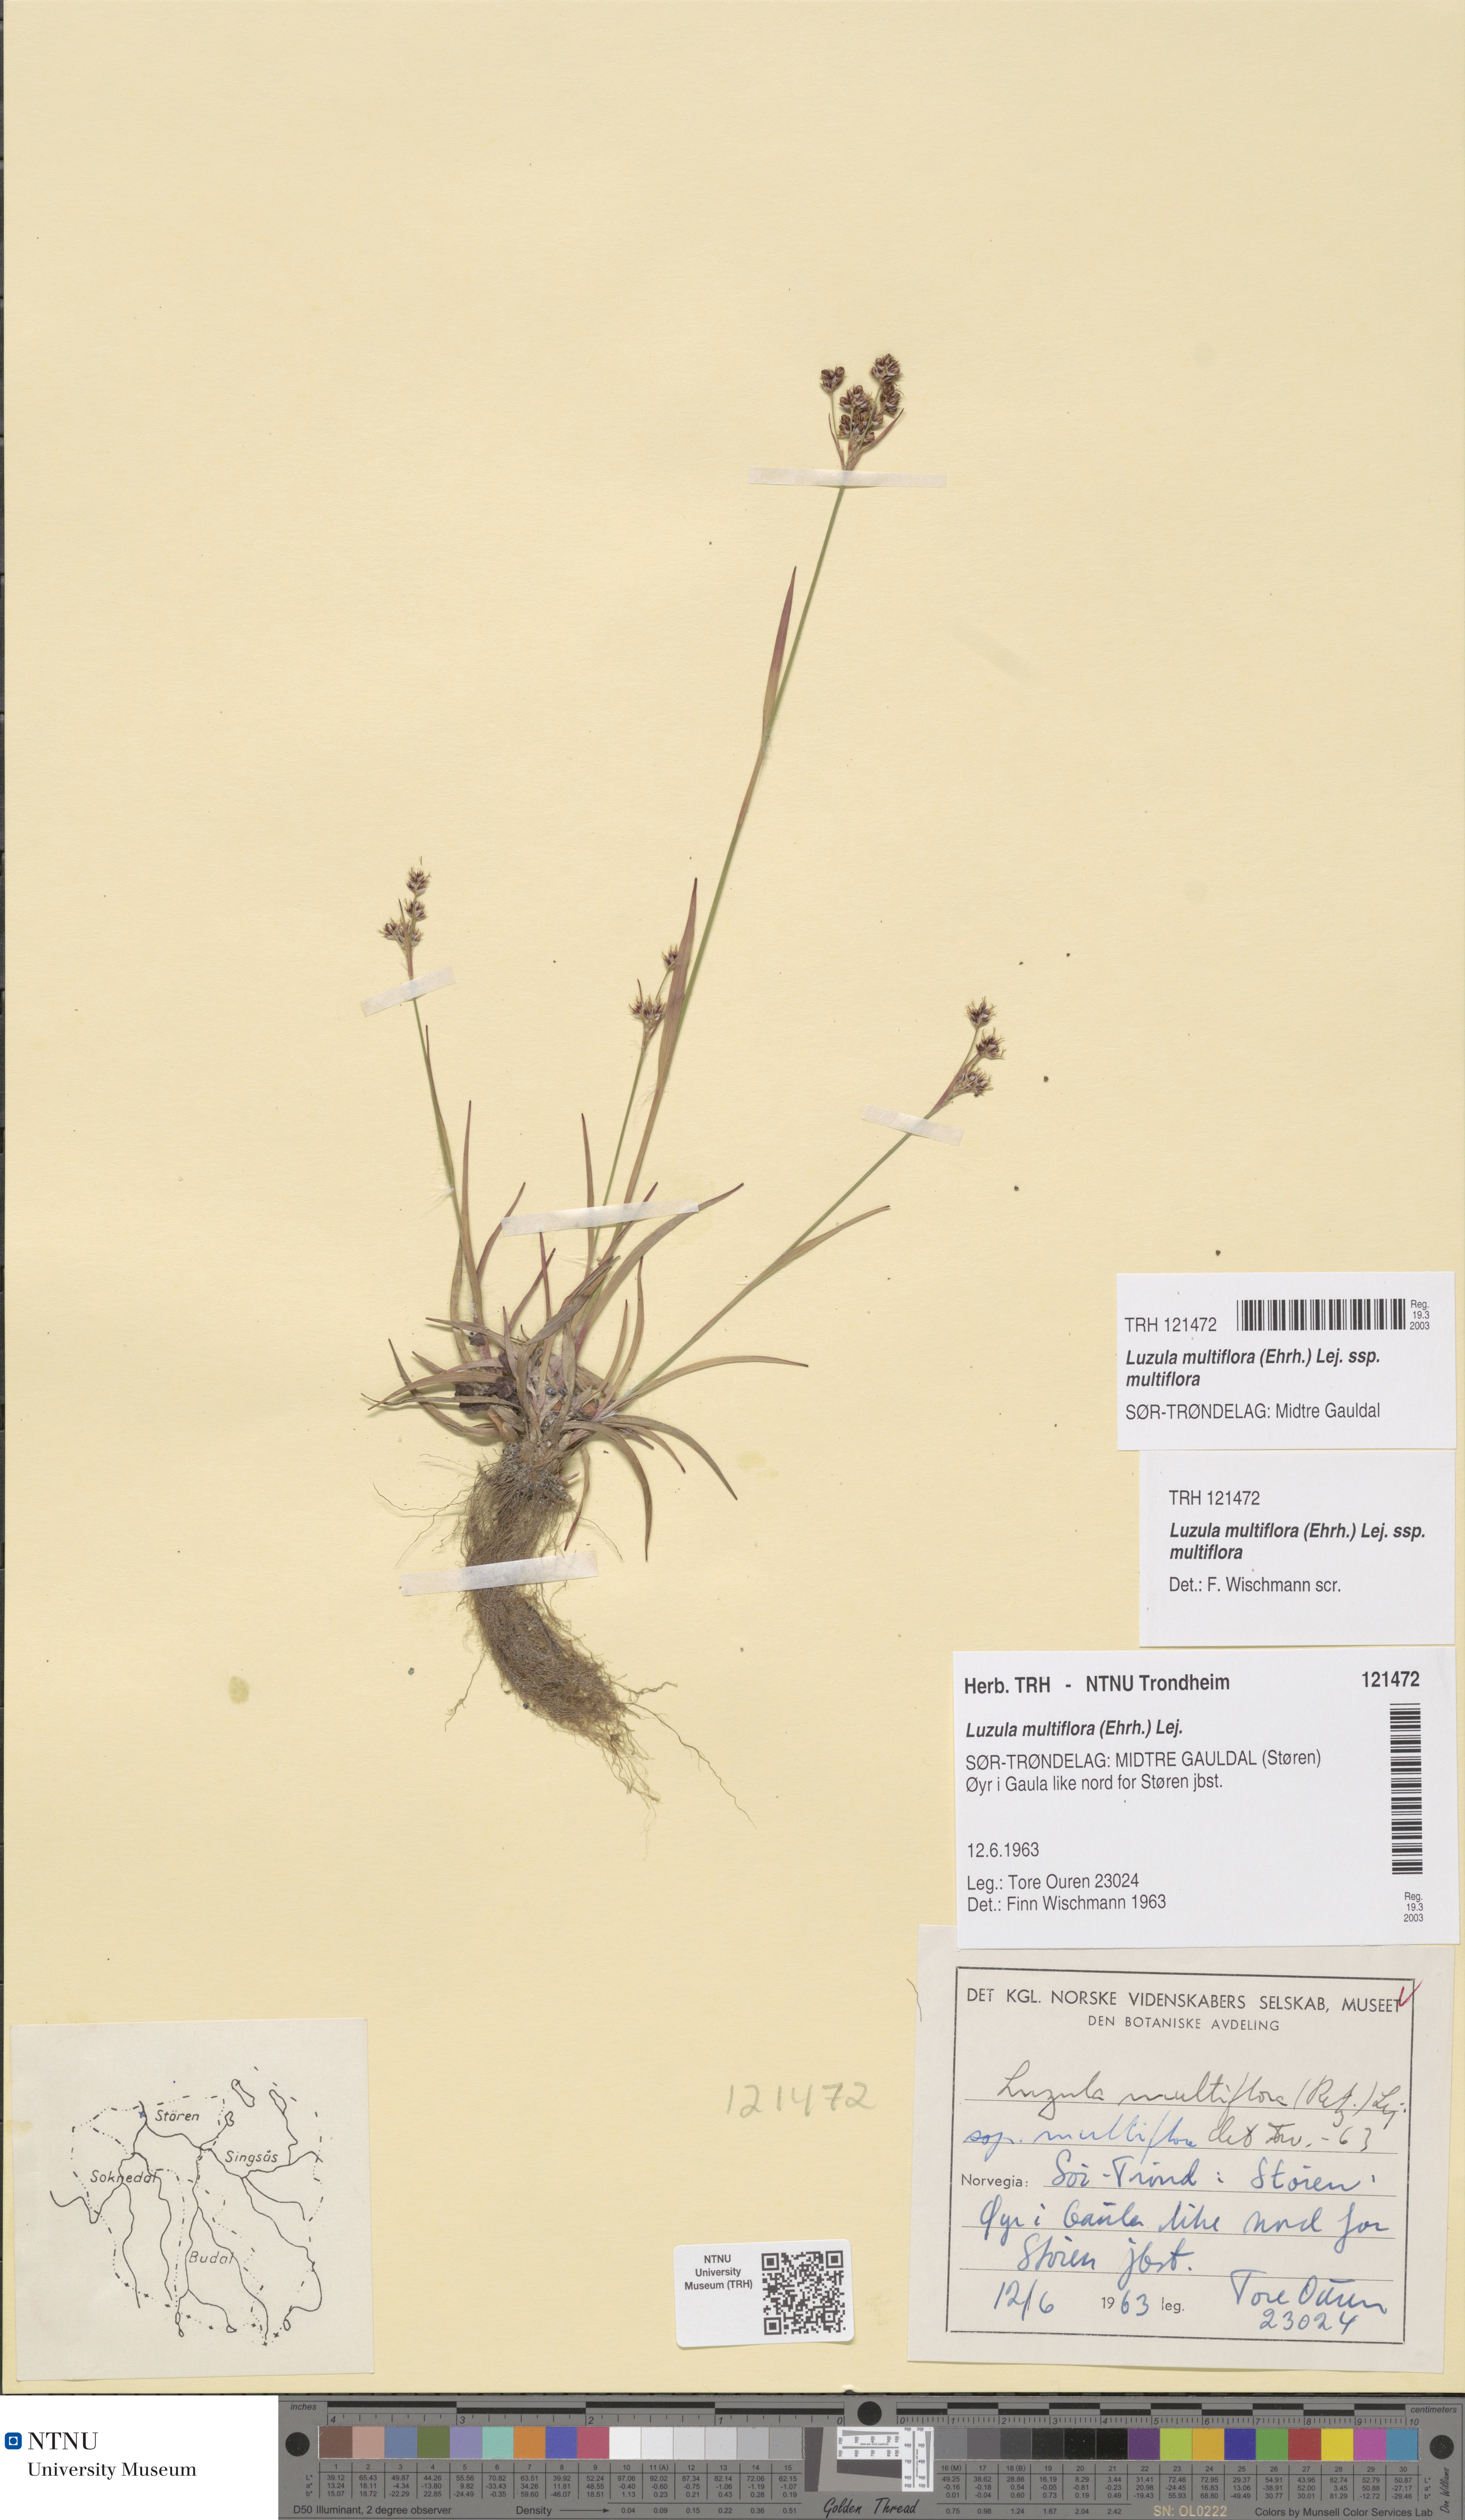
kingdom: Plantae
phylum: Tracheophyta
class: Liliopsida
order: Poales
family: Juncaceae
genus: Luzula
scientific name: Luzula multiflora
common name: Heath wood-rush
